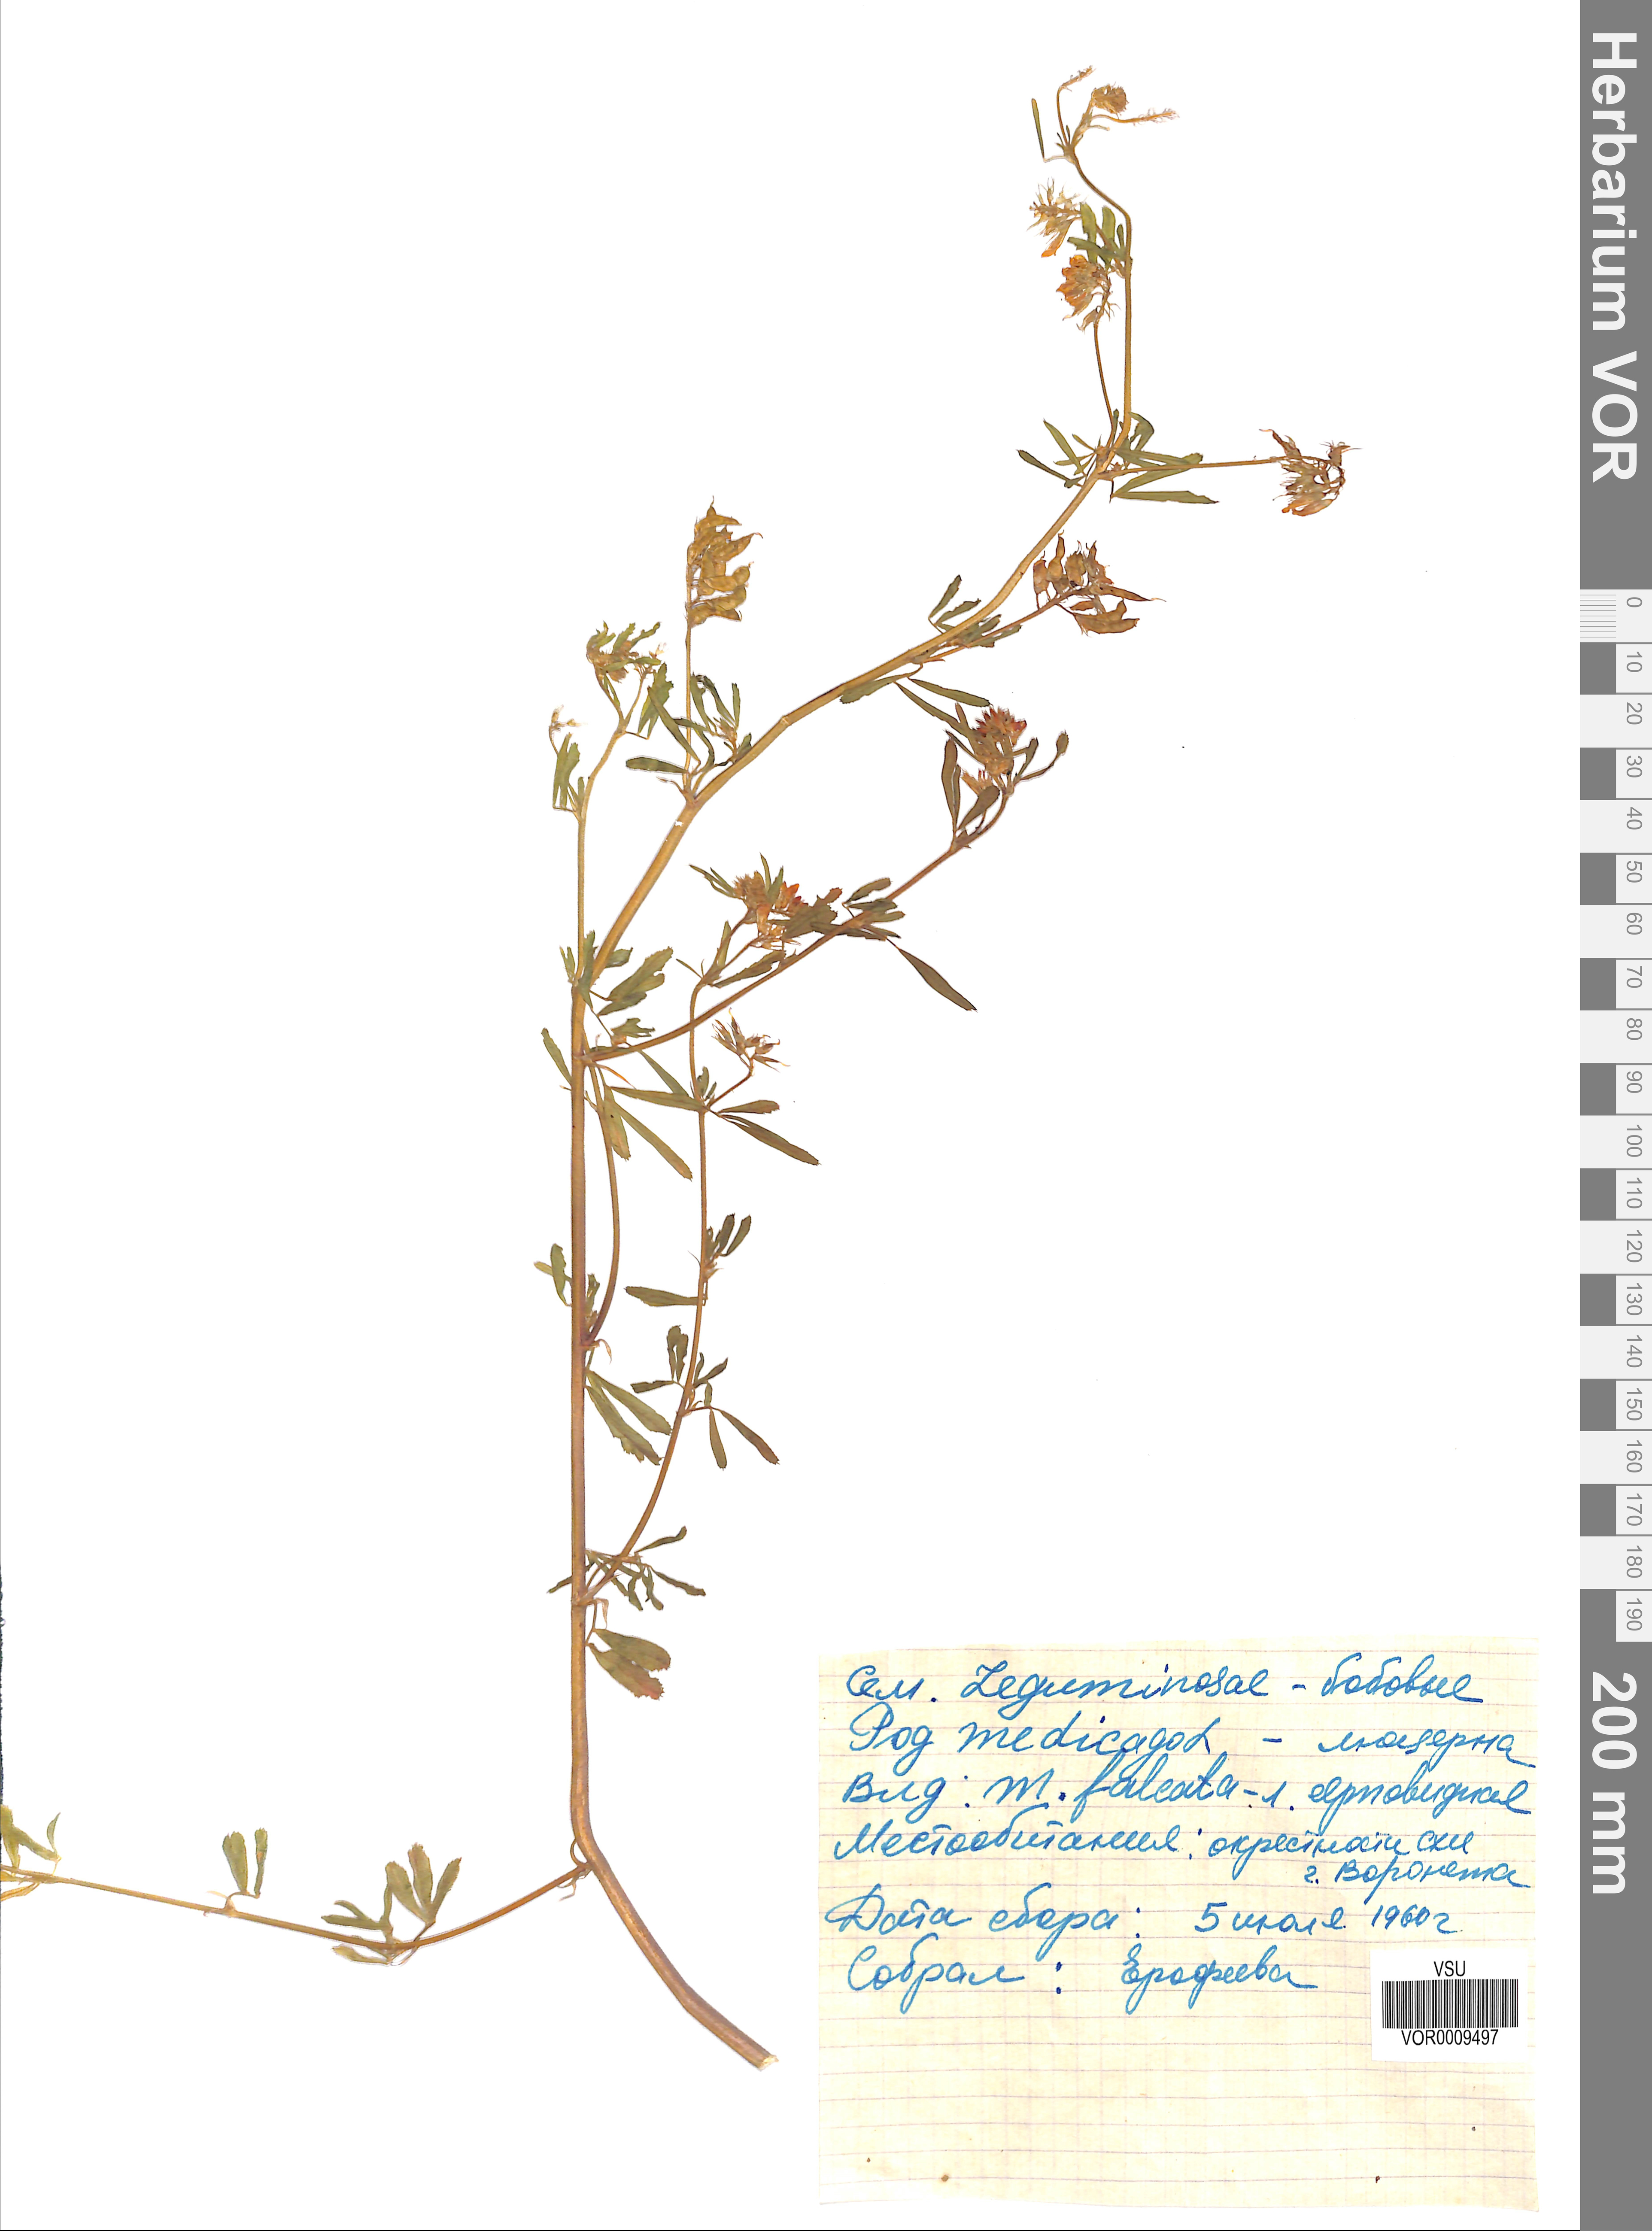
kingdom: Plantae
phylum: Tracheophyta
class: Magnoliopsida
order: Fabales
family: Fabaceae
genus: Medicago
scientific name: Medicago falcata
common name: Sickle medick
